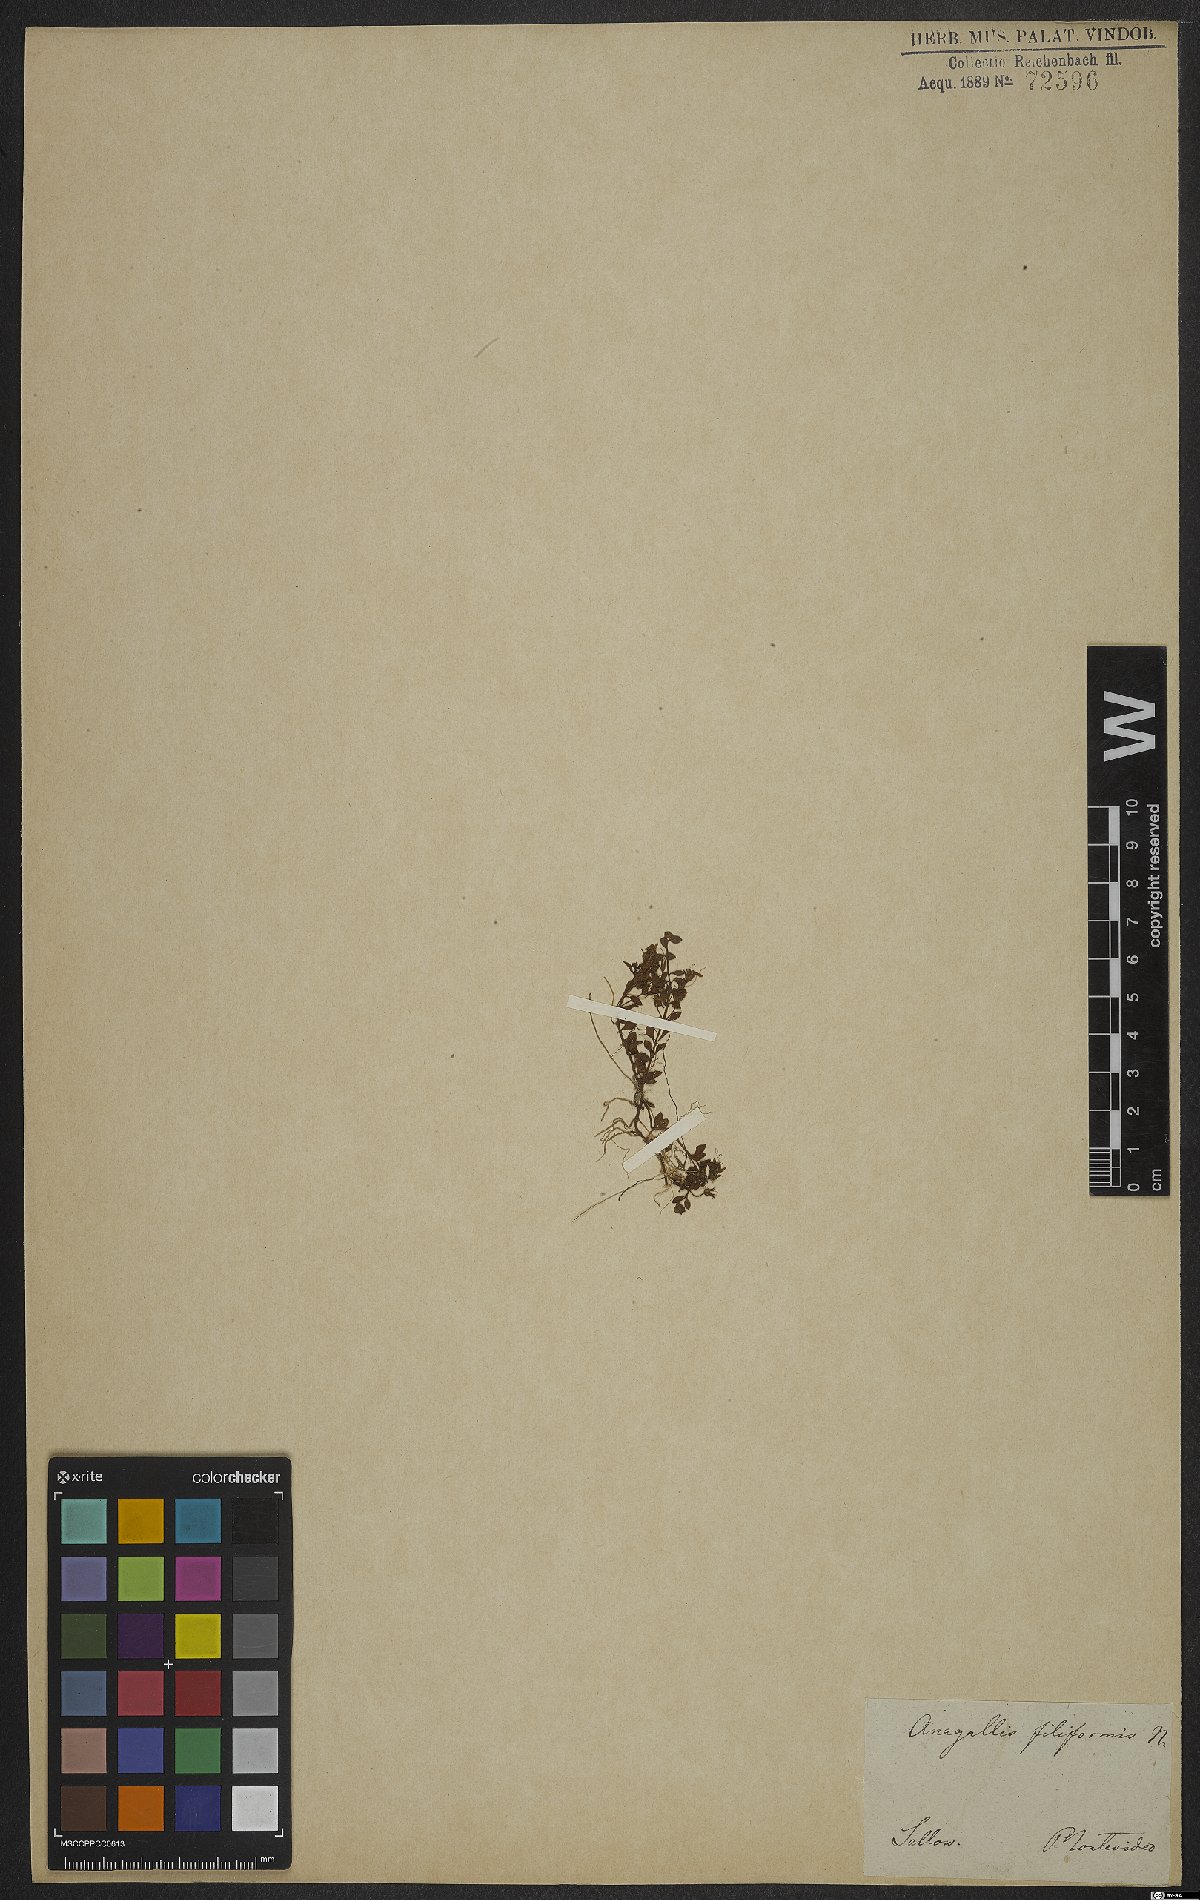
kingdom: Plantae
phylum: Tracheophyta
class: Magnoliopsida
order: Ericales
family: Primulaceae
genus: Lysimachia
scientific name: Lysimachia filiformis
